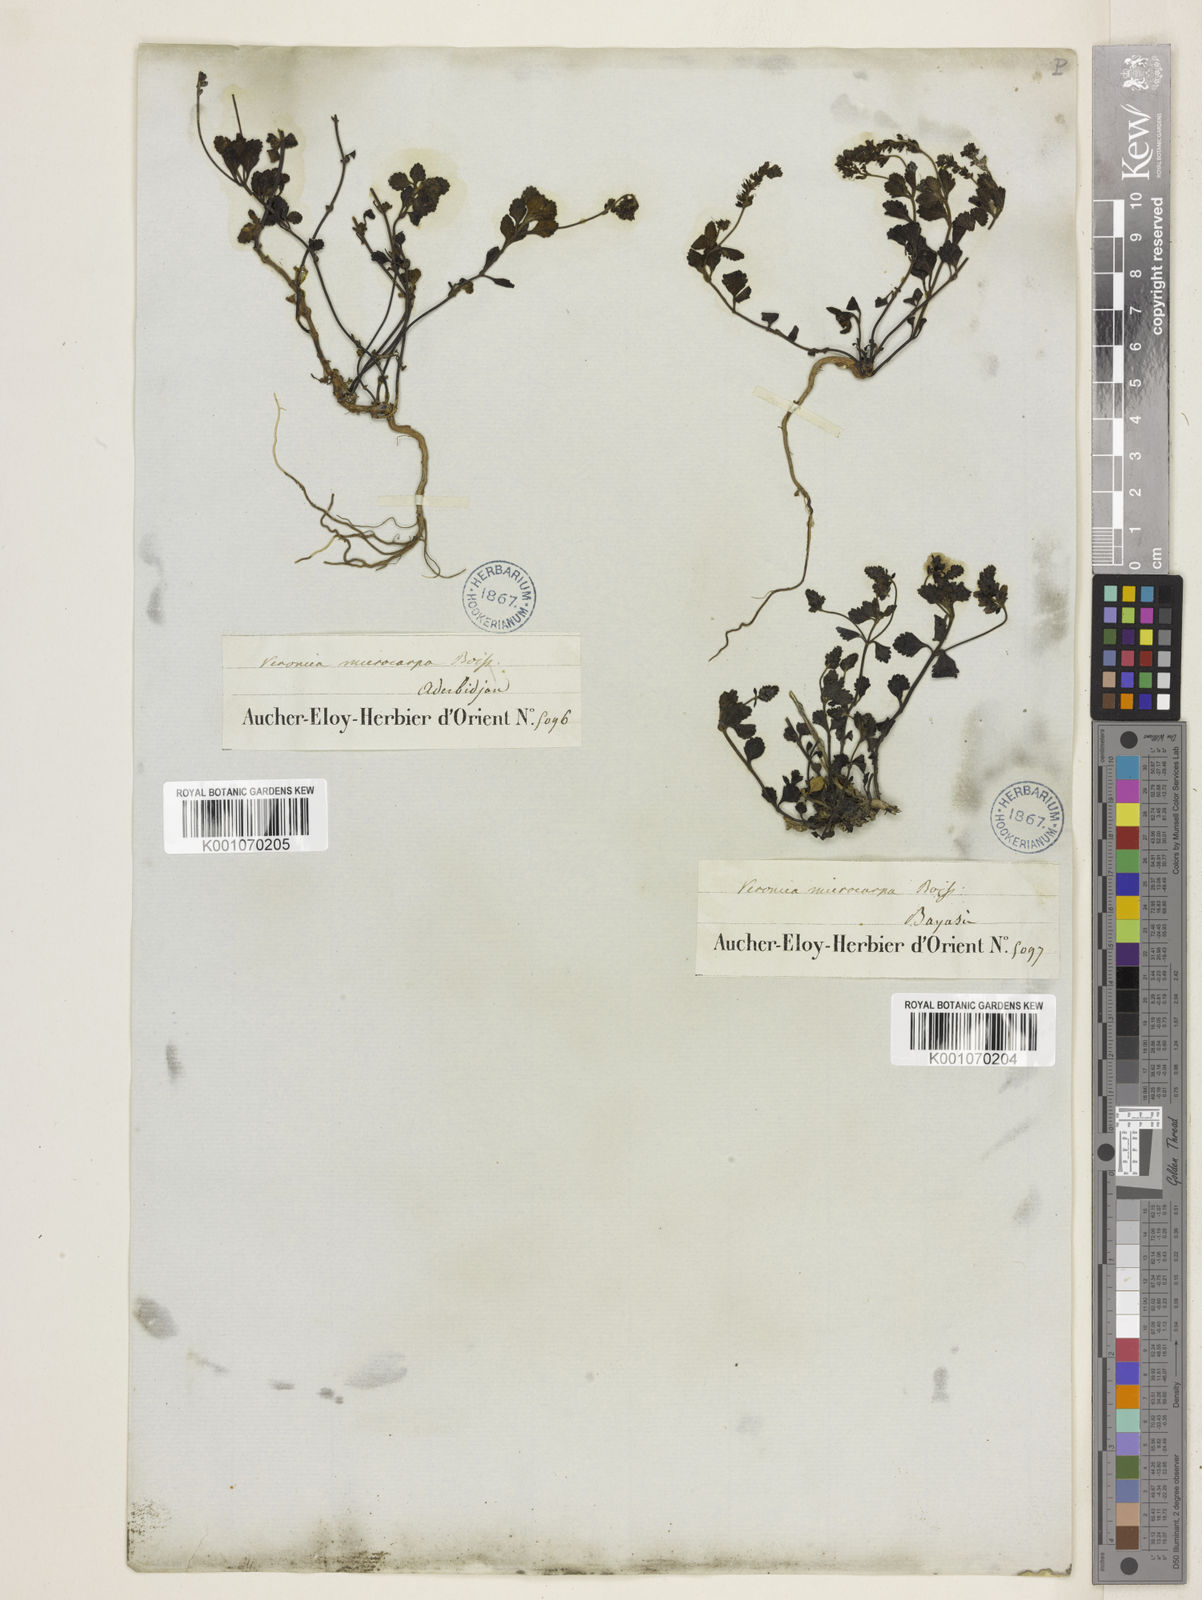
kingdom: Plantae
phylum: Tracheophyta
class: Magnoliopsida
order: Lamiales
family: Plantaginaceae
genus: Veronica
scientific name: Veronica microcarpa
